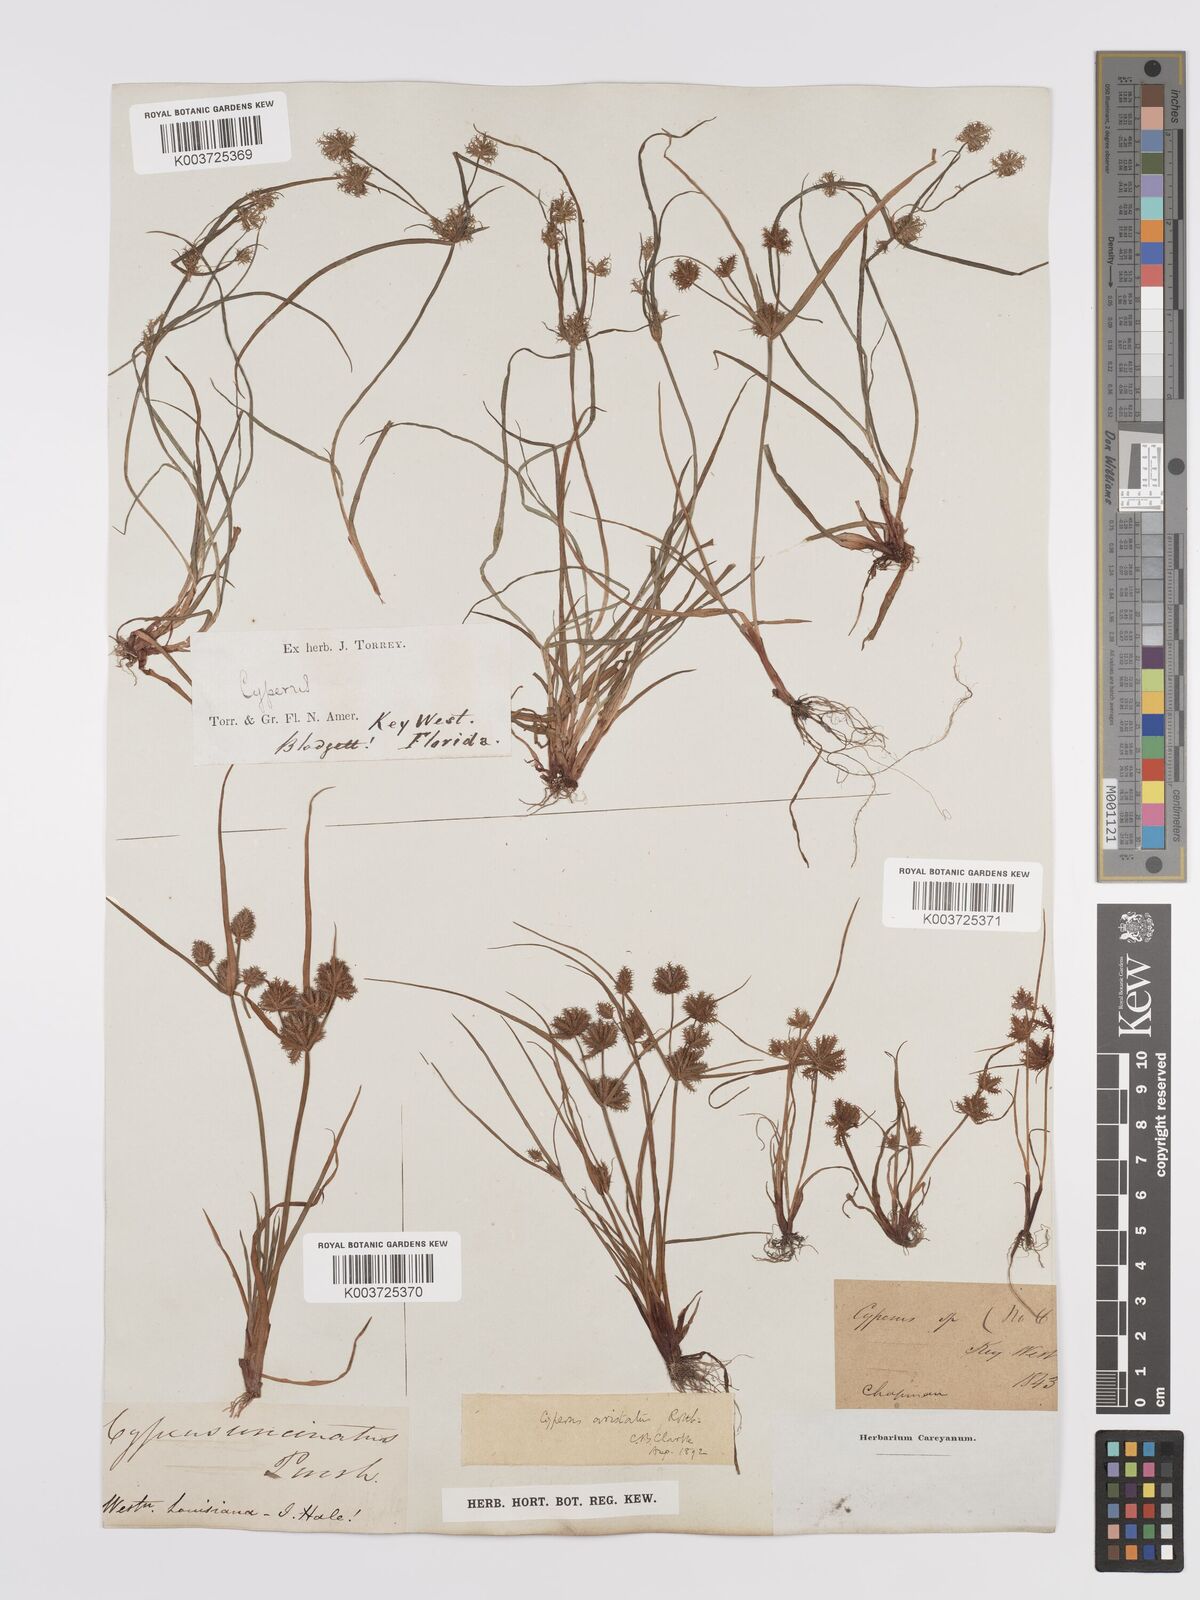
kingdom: Plantae
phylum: Tracheophyta
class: Liliopsida
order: Poales
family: Cyperaceae
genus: Cyperus
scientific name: Cyperus squarrosus
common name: Awned cyperus
